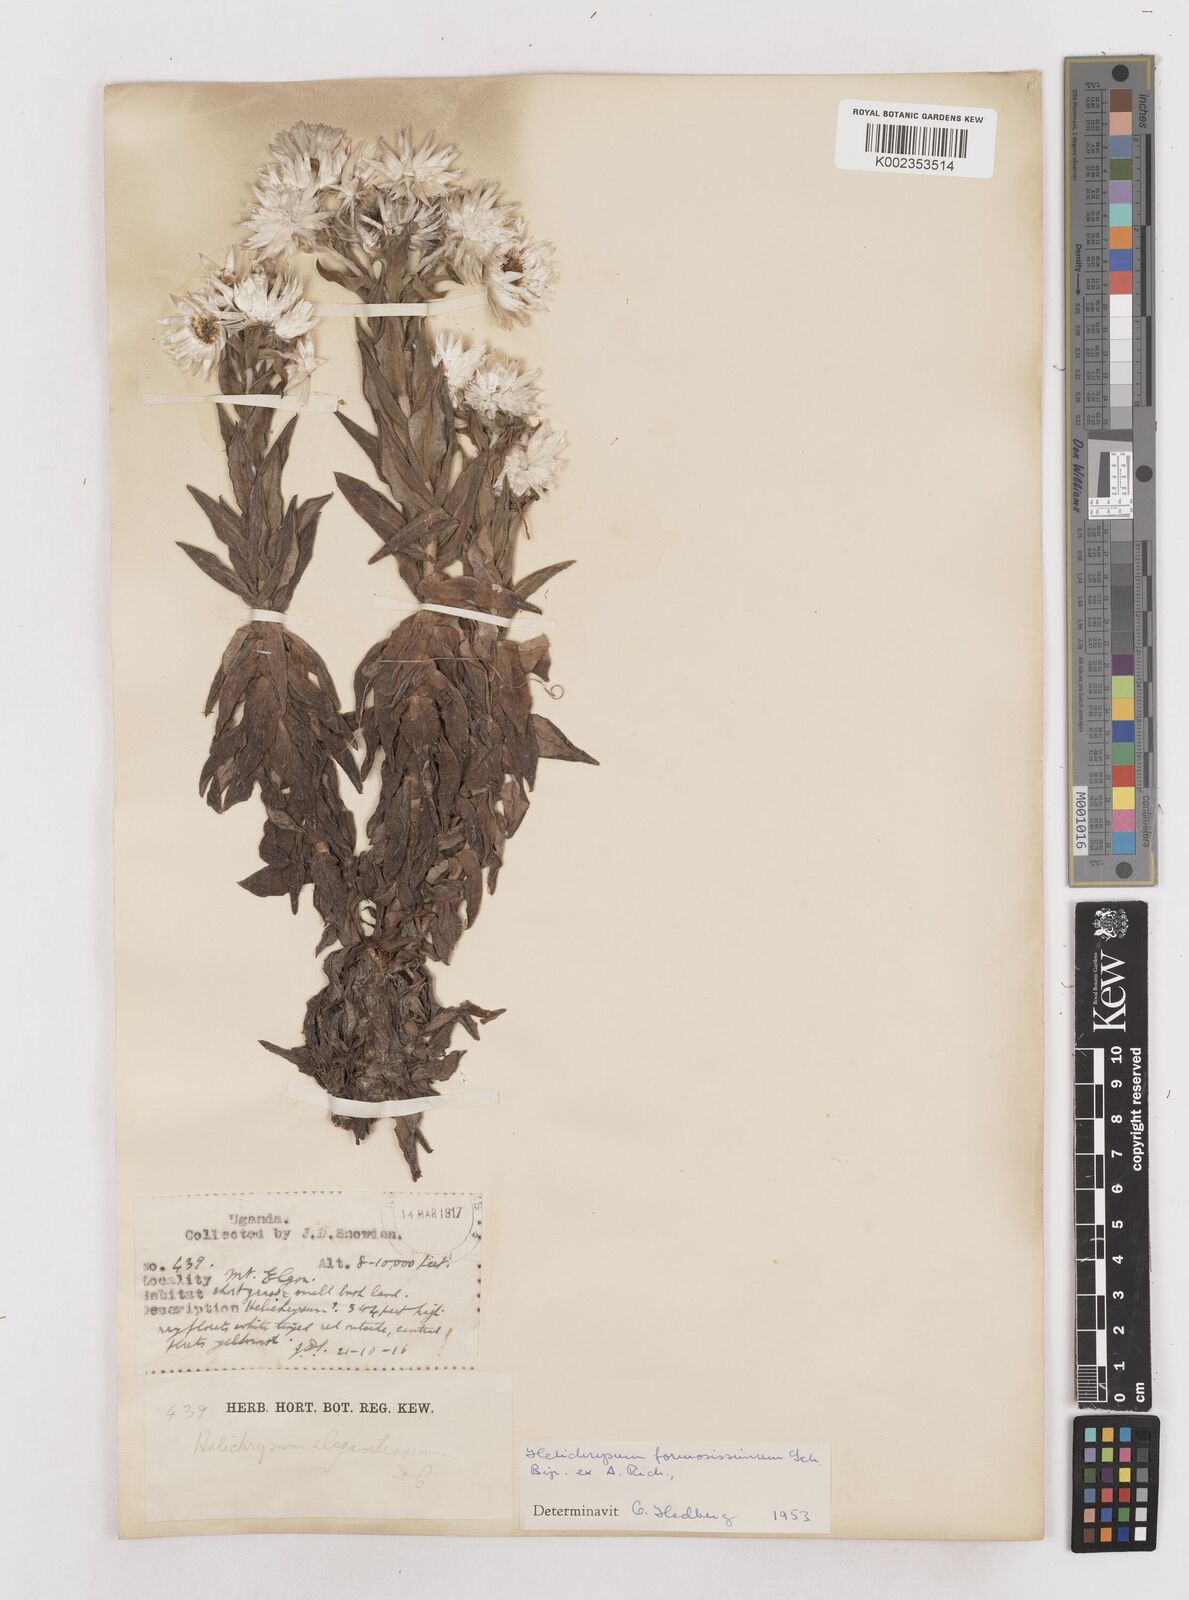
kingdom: Plantae
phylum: Tracheophyta
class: Magnoliopsida
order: Asterales
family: Asteraceae
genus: Helichrysum
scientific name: Helichrysum formosissimum
